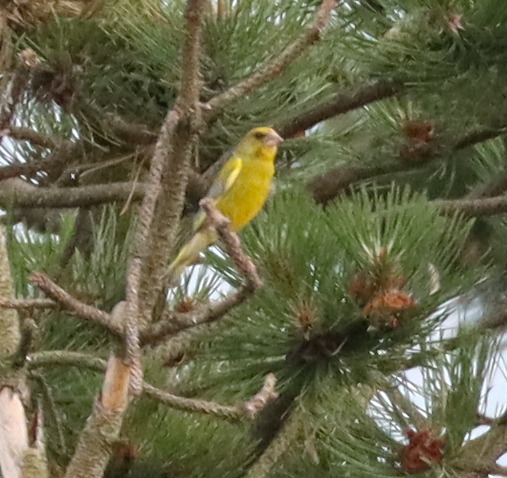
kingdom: Plantae
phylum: Tracheophyta
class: Liliopsida
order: Poales
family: Poaceae
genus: Chloris
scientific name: Chloris chloris
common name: Grønirisk
